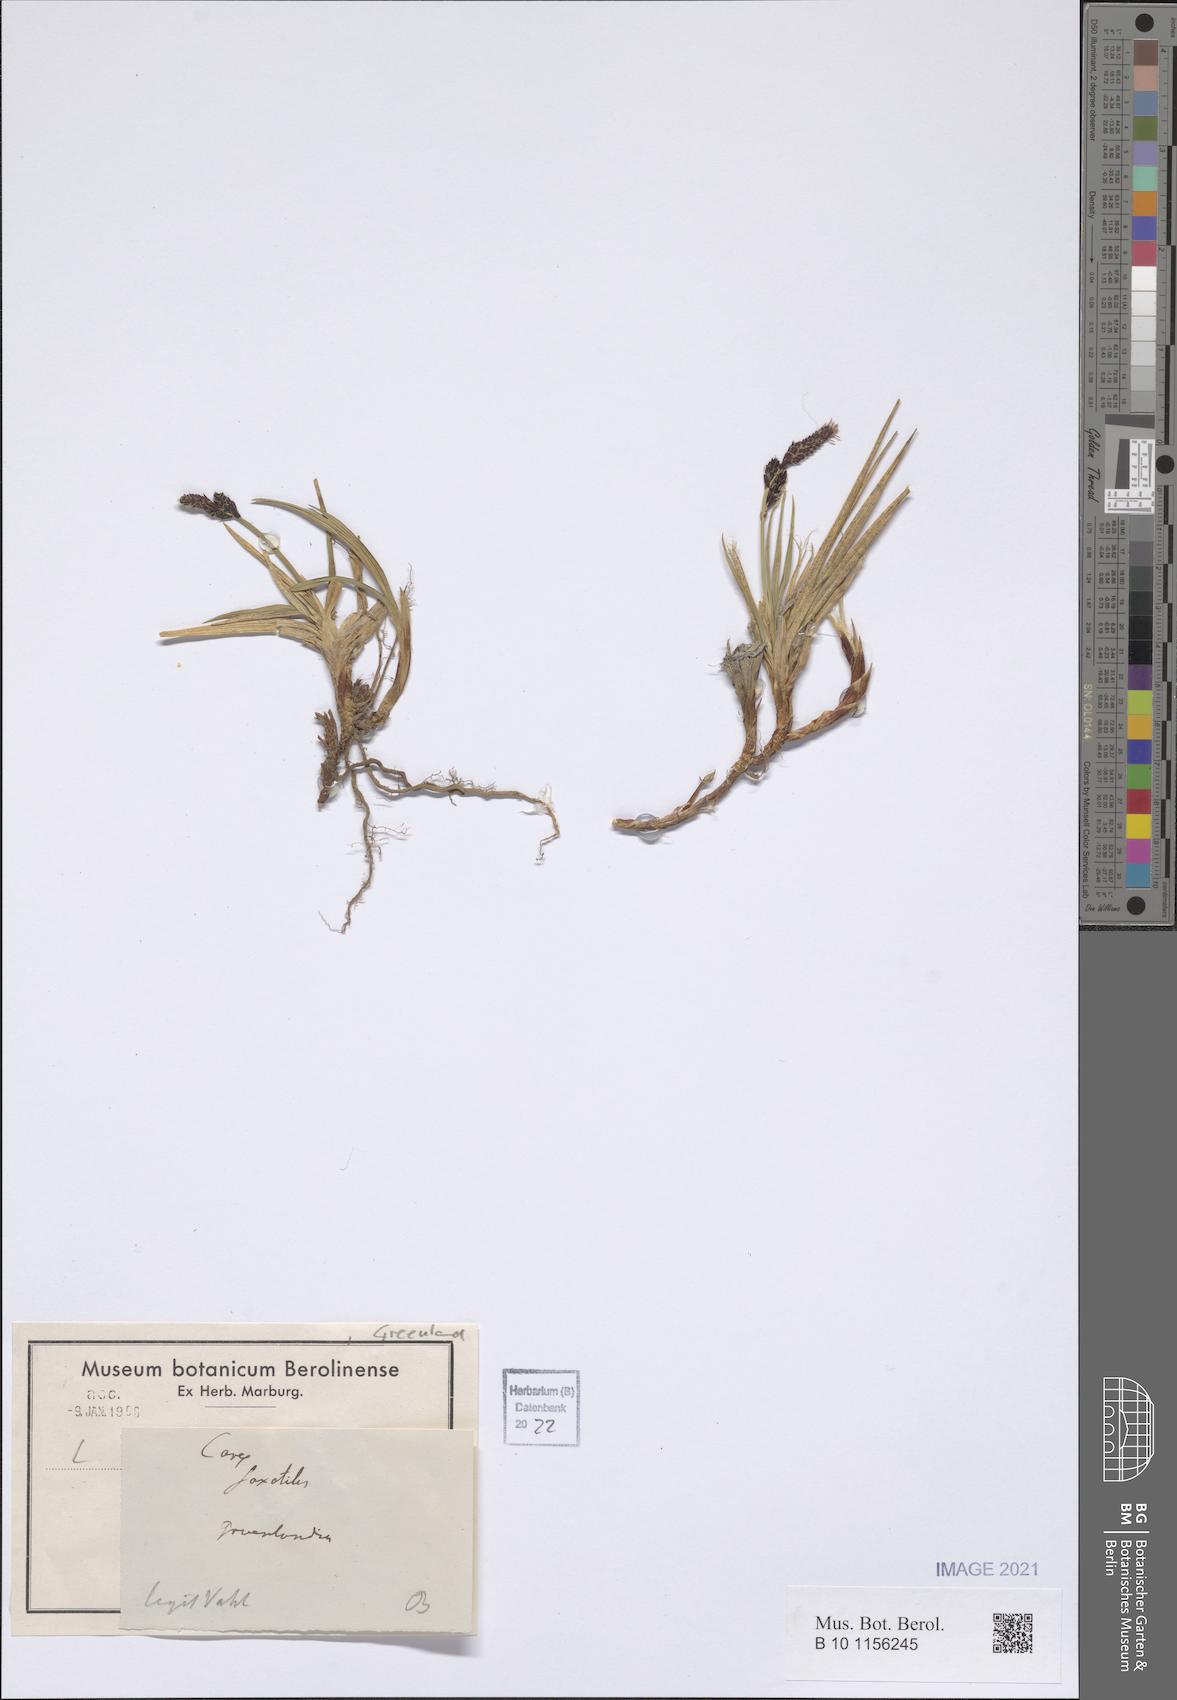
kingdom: Plantae
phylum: Tracheophyta
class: Liliopsida
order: Poales
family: Cyperaceae
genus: Carex
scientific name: Carex saxatilis
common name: Russet sedge
